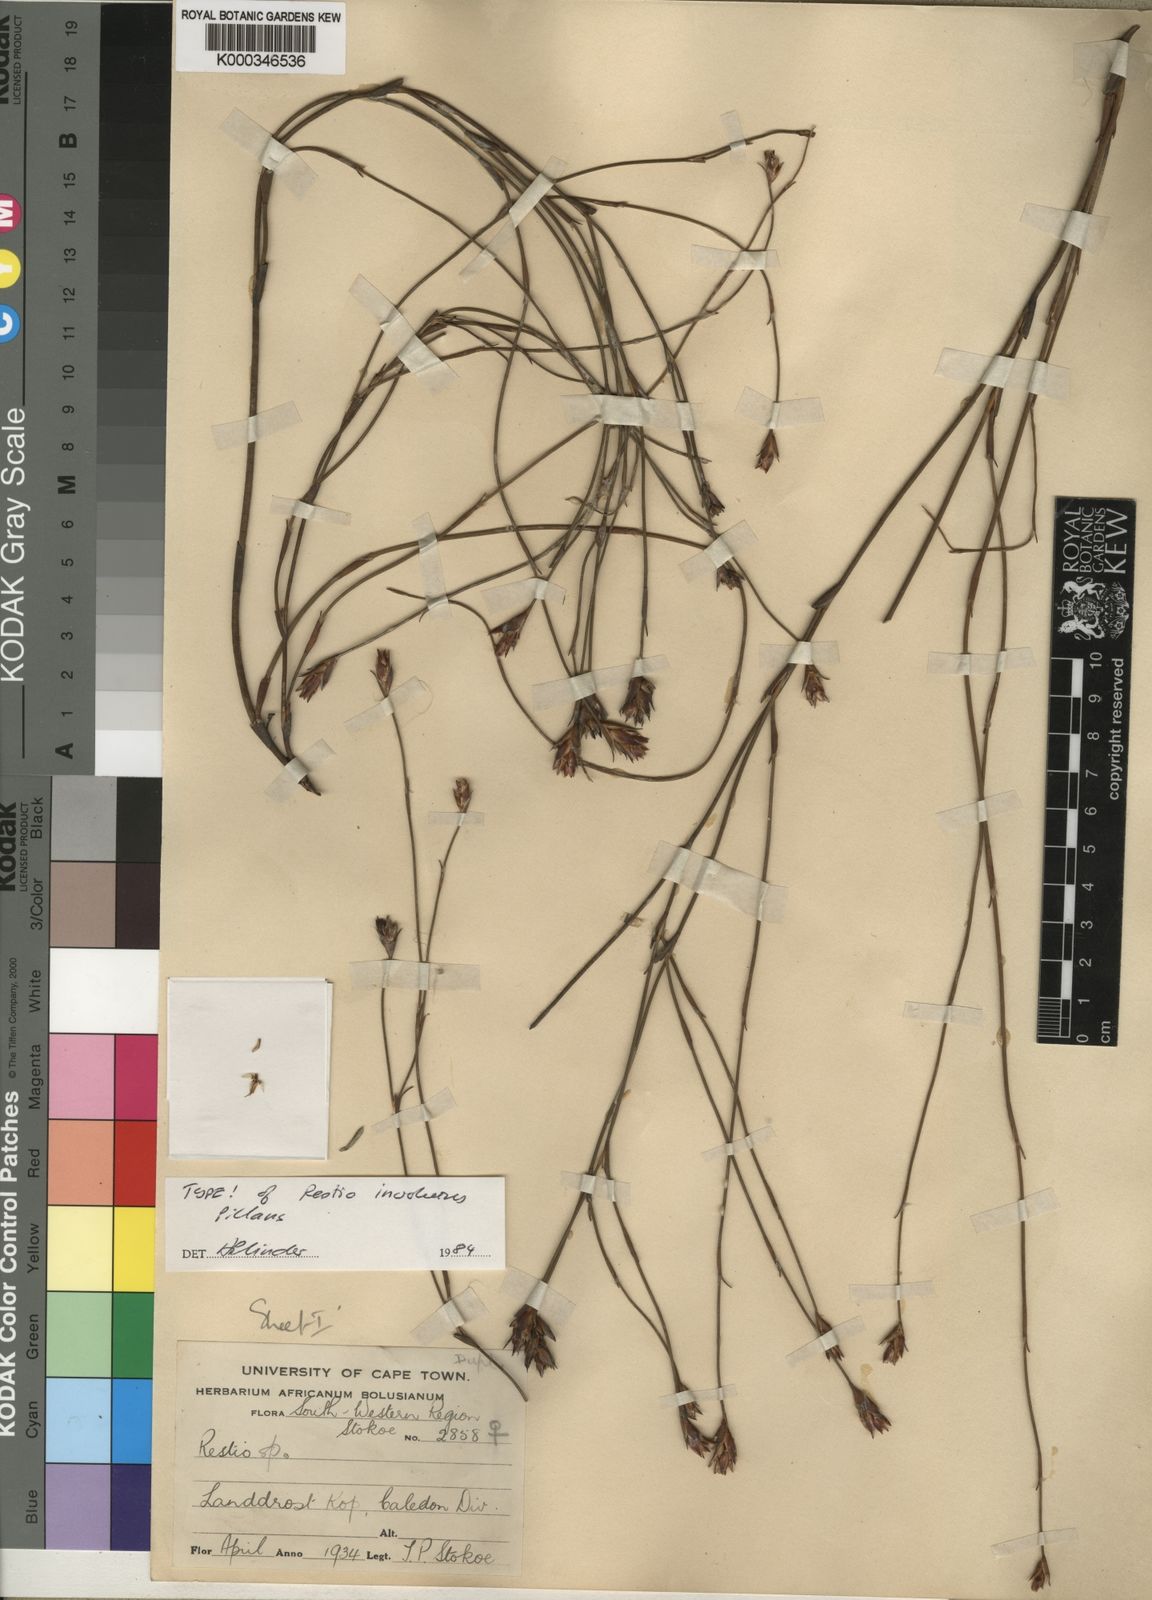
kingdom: Plantae
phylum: Tracheophyta
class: Liliopsida
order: Poales
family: Restionaceae
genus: Restio
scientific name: Restio involutus
